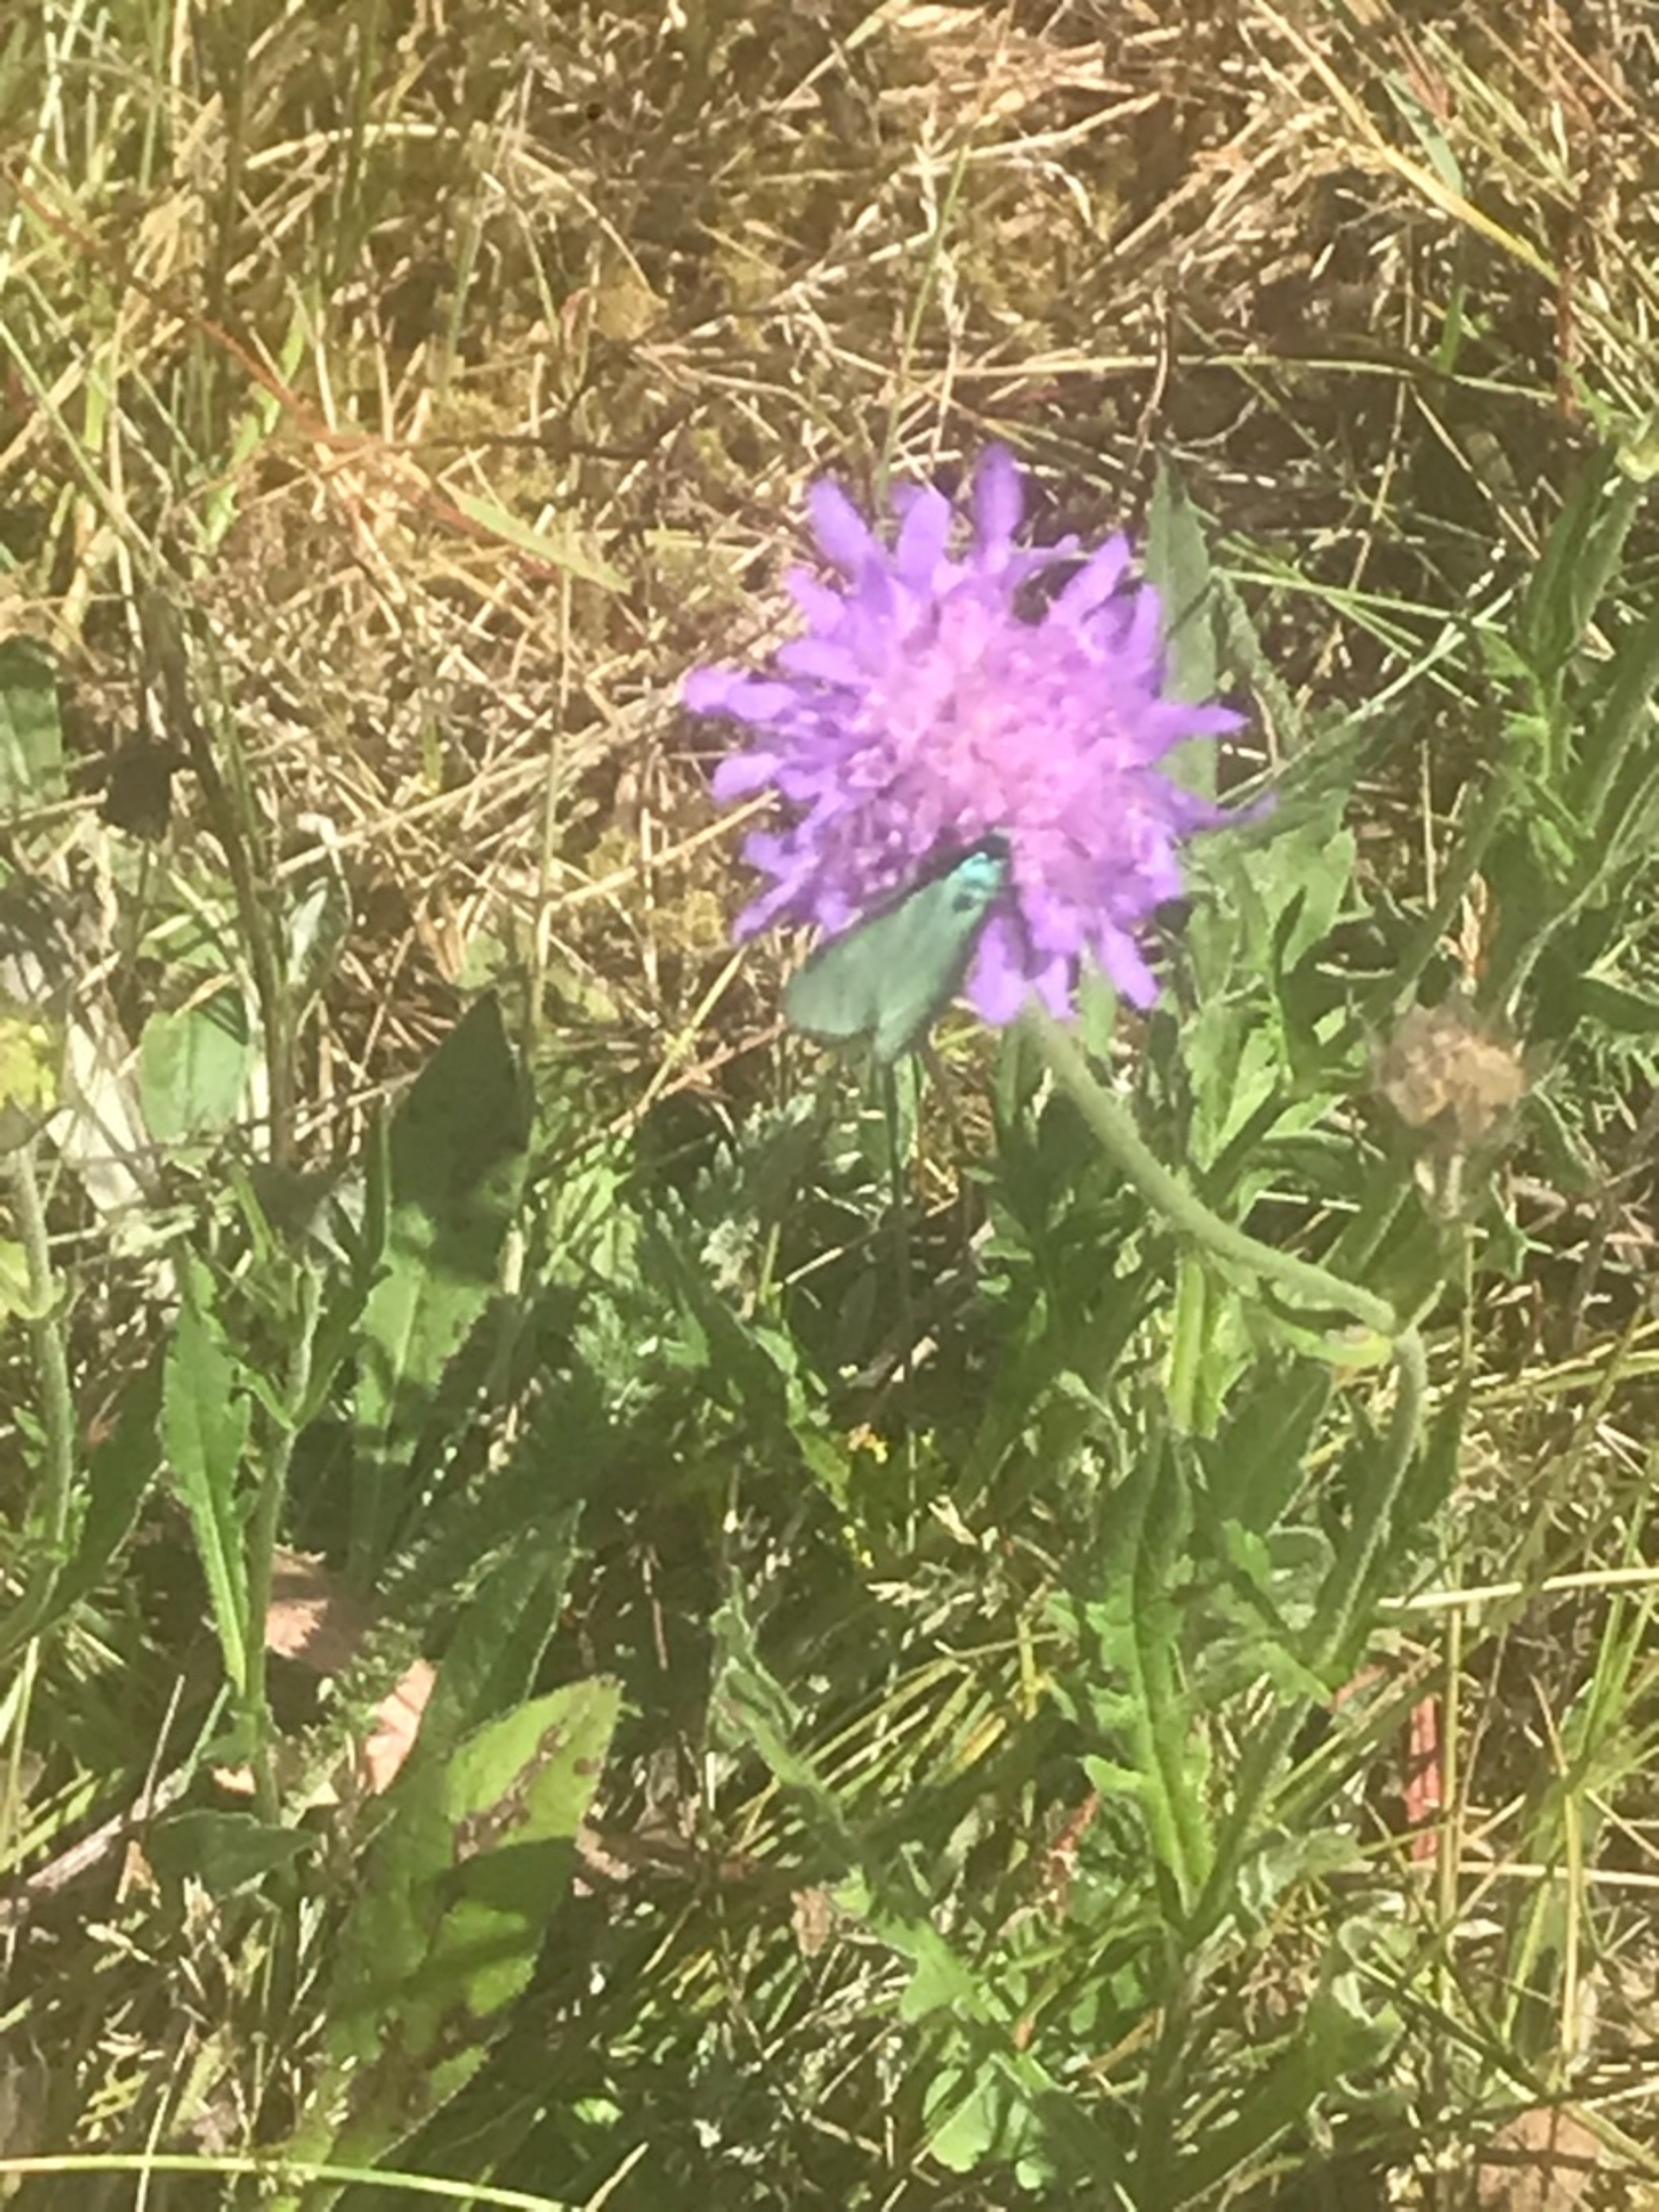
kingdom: Animalia
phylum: Arthropoda
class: Insecta
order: Lepidoptera
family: Zygaenidae
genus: Adscita
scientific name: Adscita statices
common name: Metalvinge
